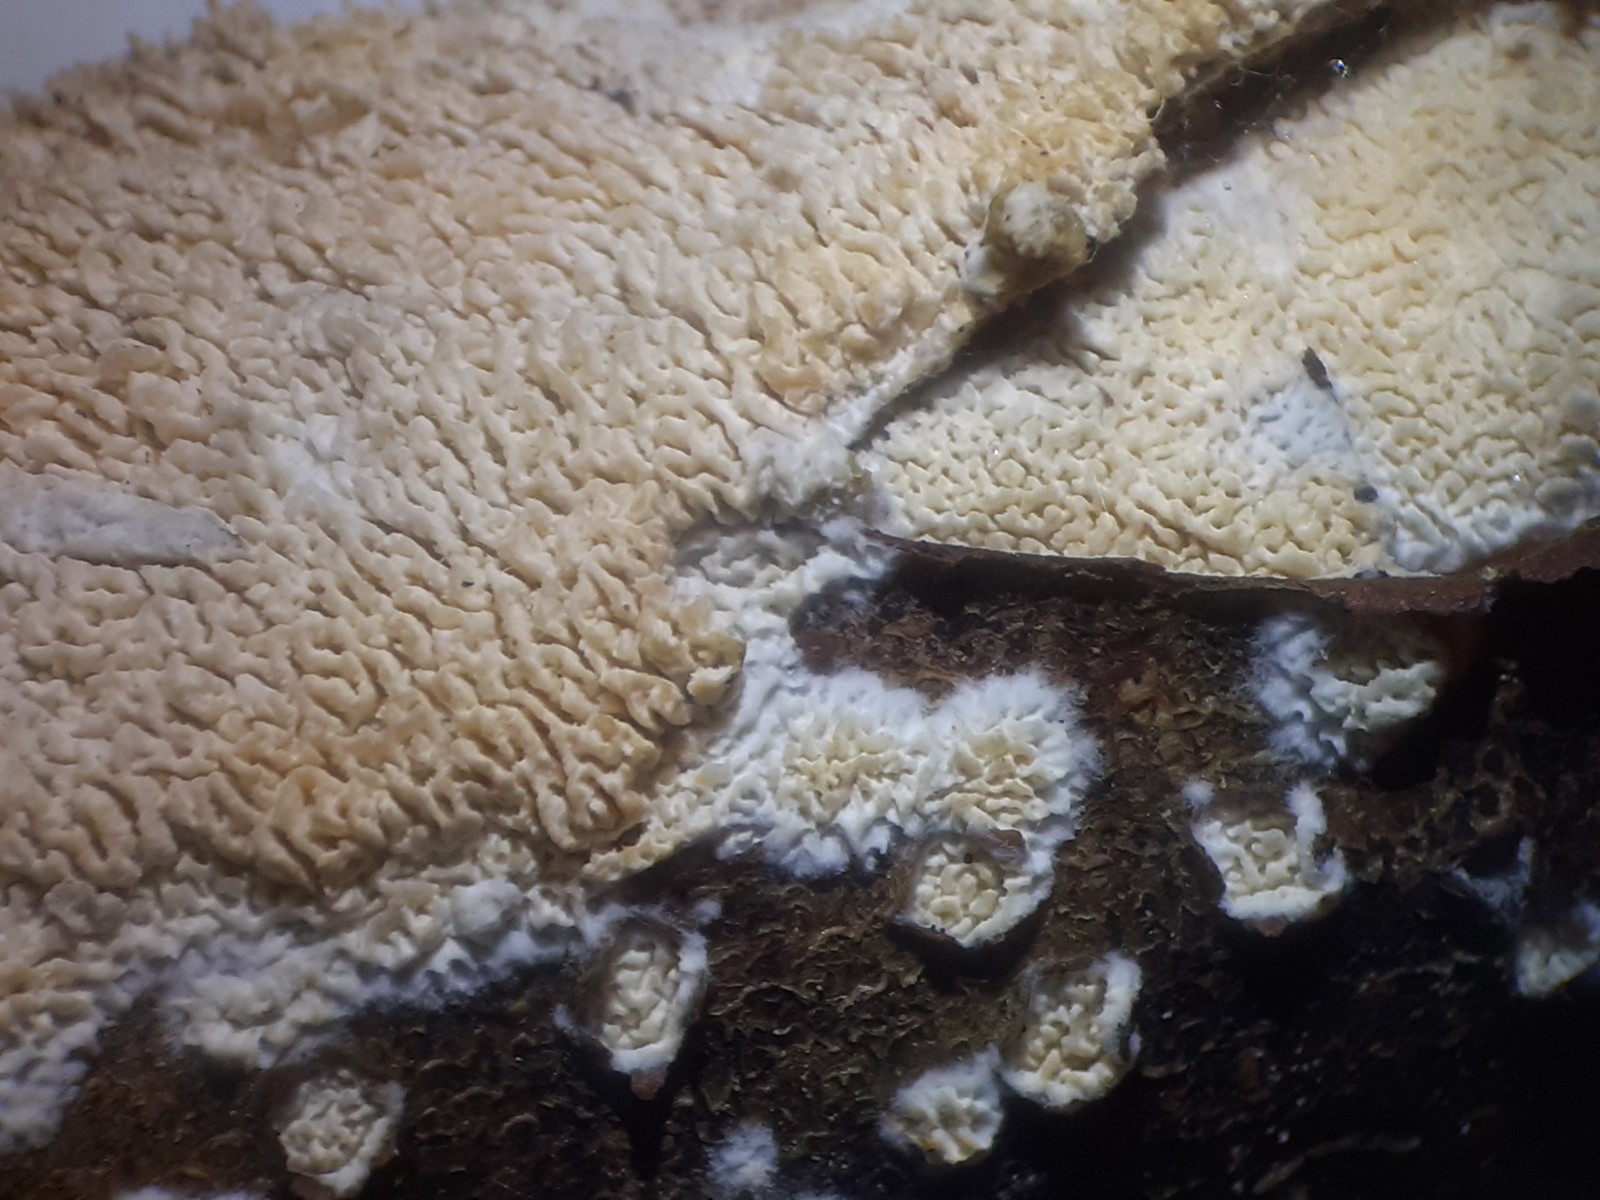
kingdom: Fungi
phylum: Basidiomycota
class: Agaricomycetes
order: Hymenochaetales
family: Schizoporaceae
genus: Schizopora
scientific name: Schizopora paradoxa
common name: hvid tandsvamp
